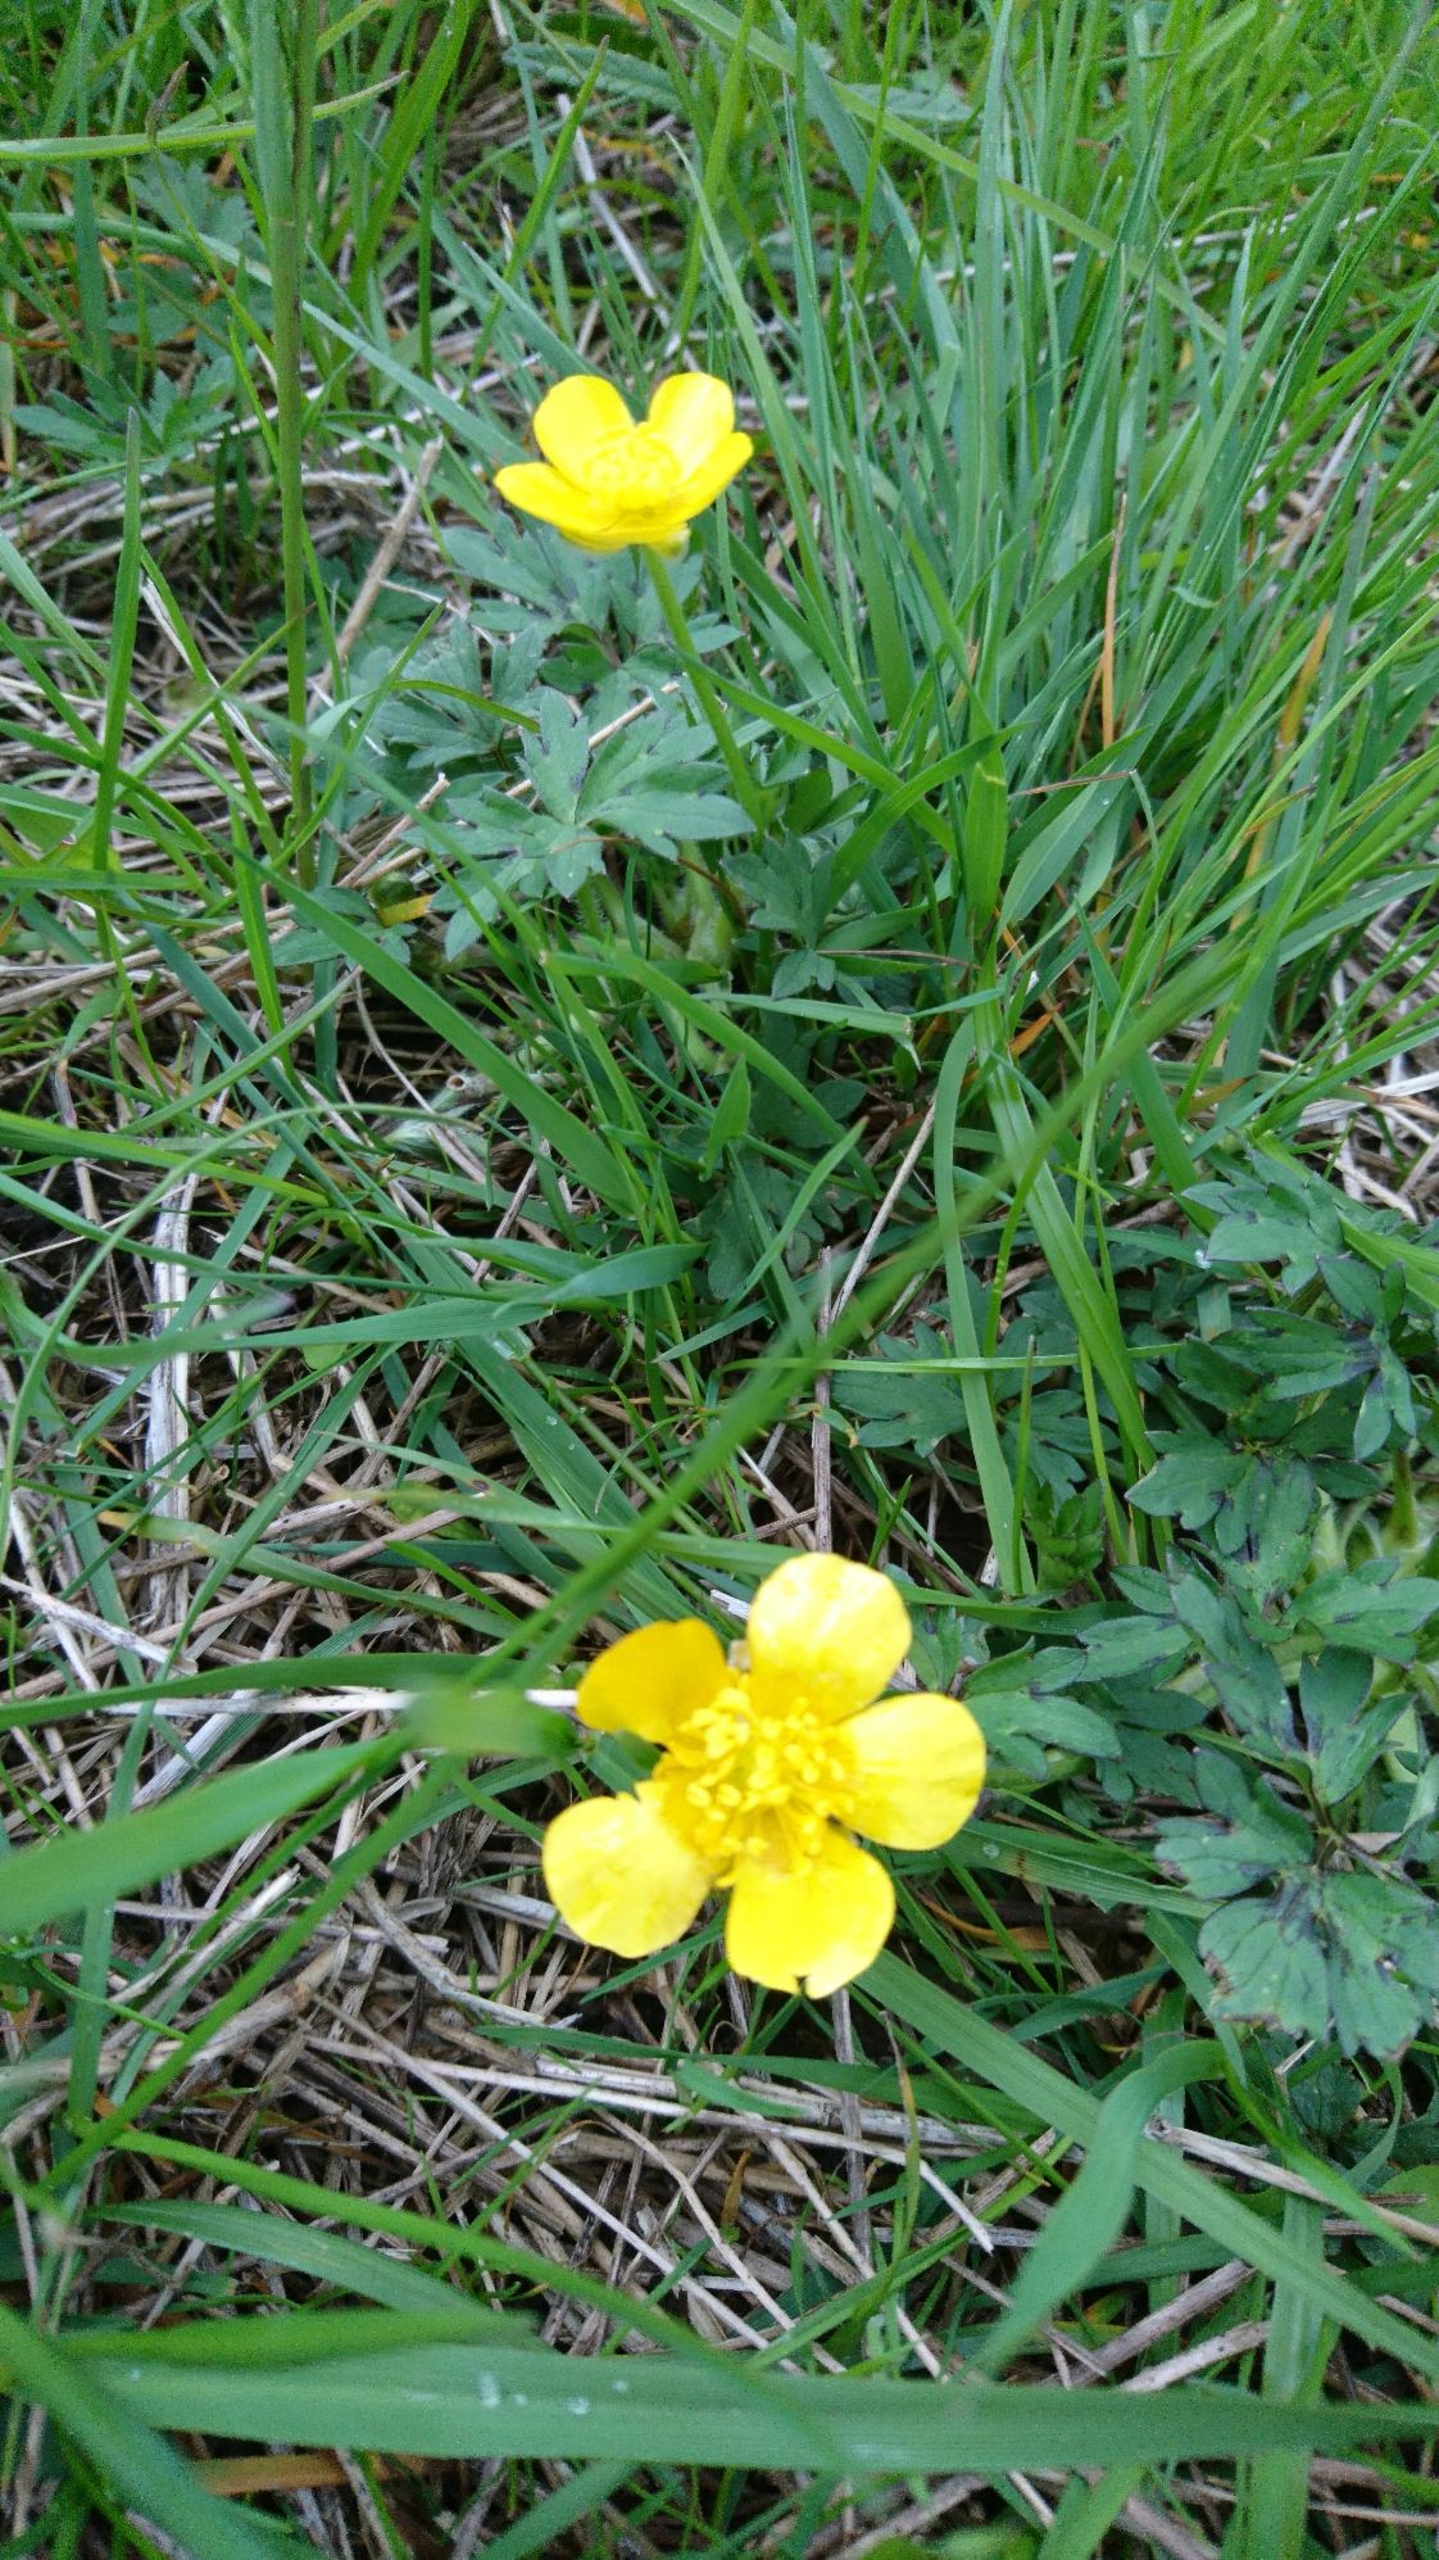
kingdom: Plantae
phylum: Tracheophyta
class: Magnoliopsida
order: Ranunculales
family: Ranunculaceae
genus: Ranunculus
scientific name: Ranunculus repens
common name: Lav ranunkel
